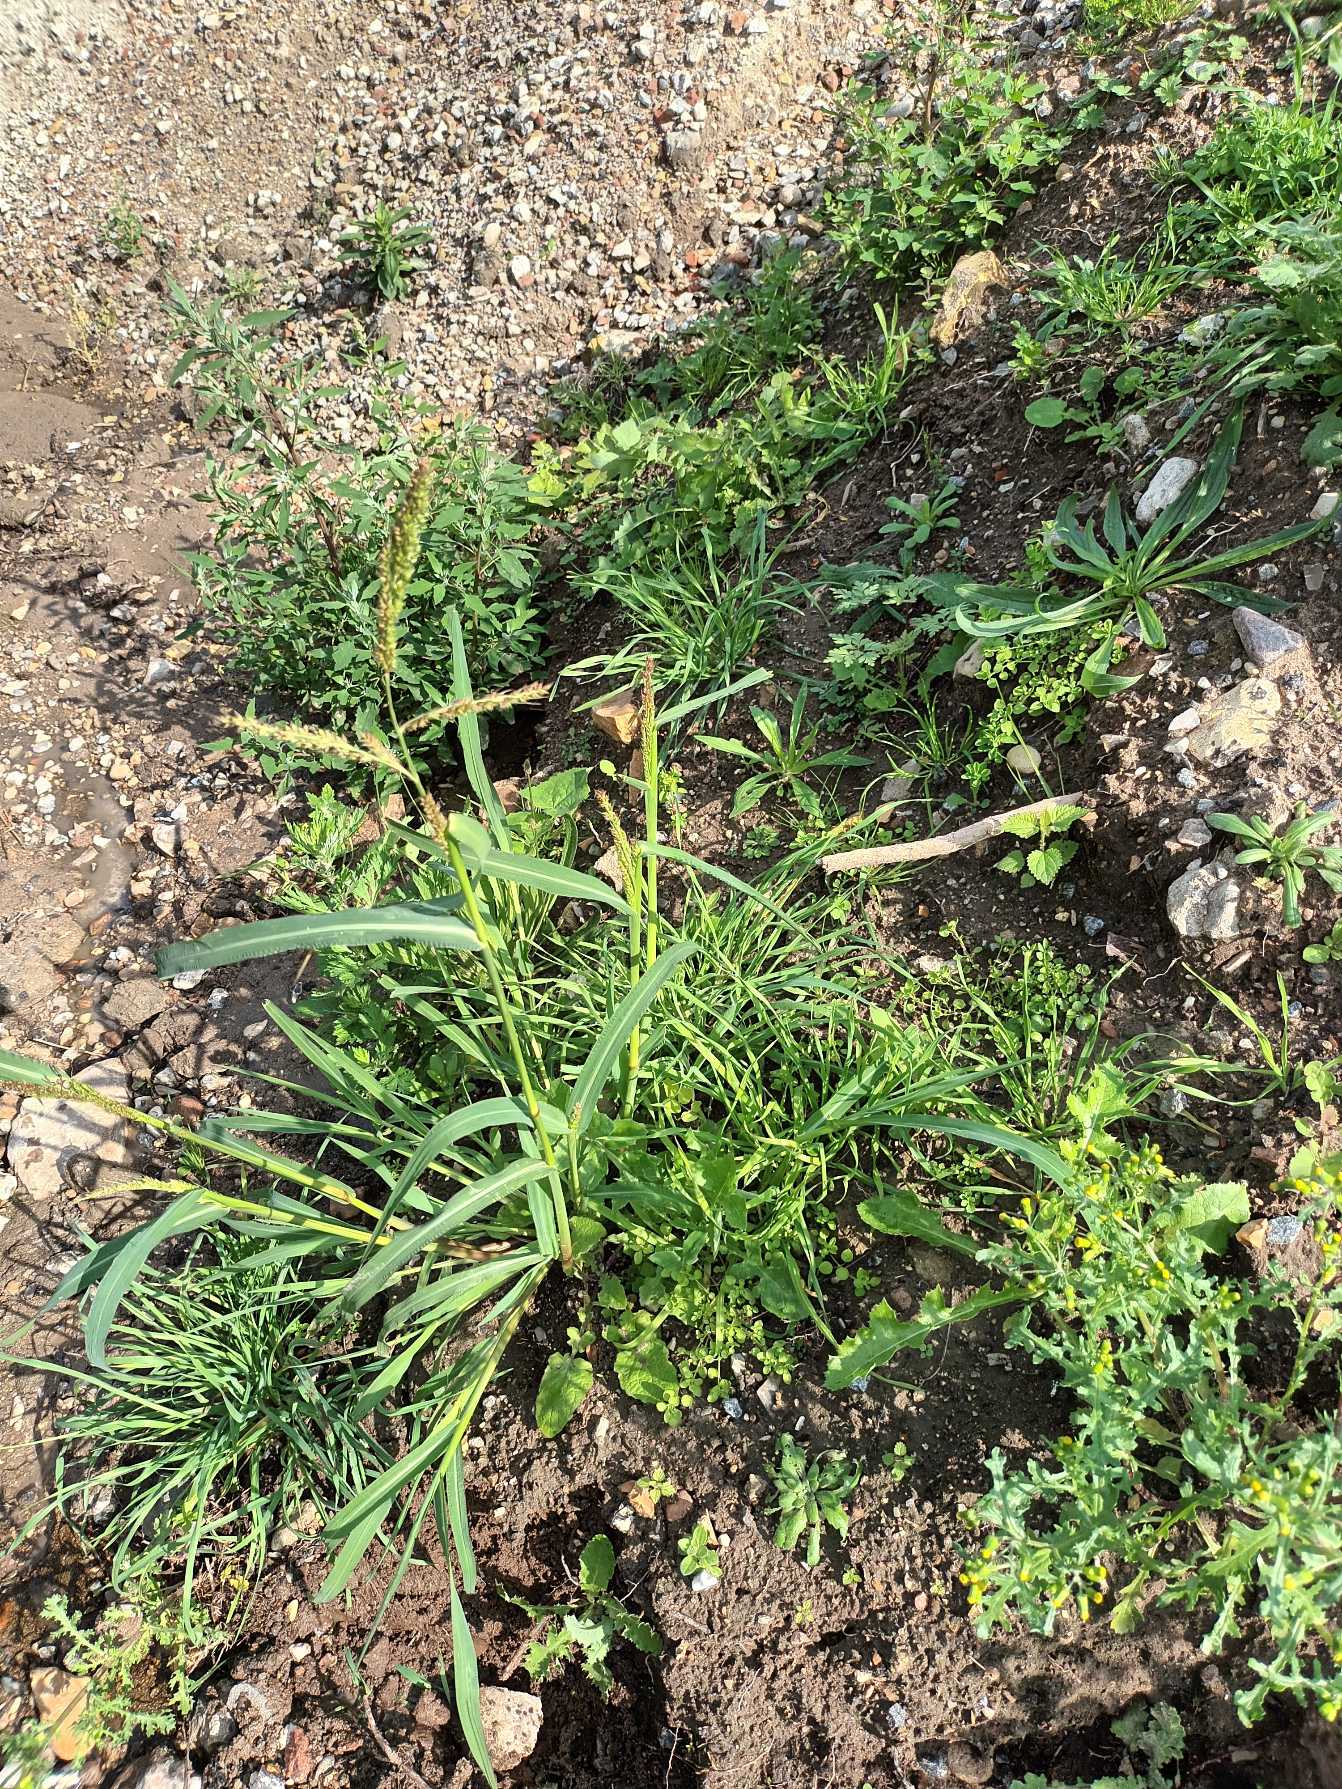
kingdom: Plantae
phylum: Tracheophyta
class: Liliopsida
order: Poales
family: Poaceae
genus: Echinochloa
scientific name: Echinochloa crus-galli
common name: Almindelig hanespore
